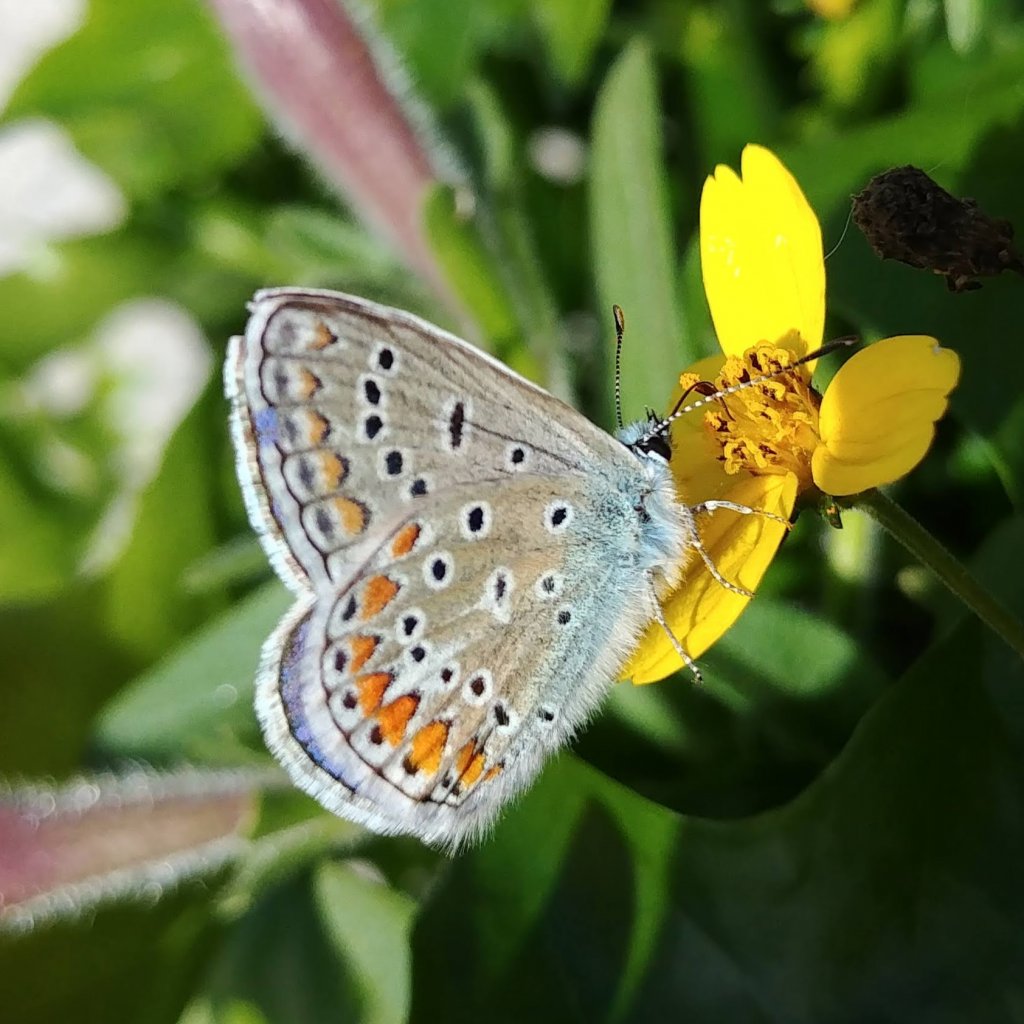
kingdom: Animalia
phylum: Arthropoda
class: Insecta
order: Lepidoptera
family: Lycaenidae
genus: Polyommatus
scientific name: Polyommatus icarus
